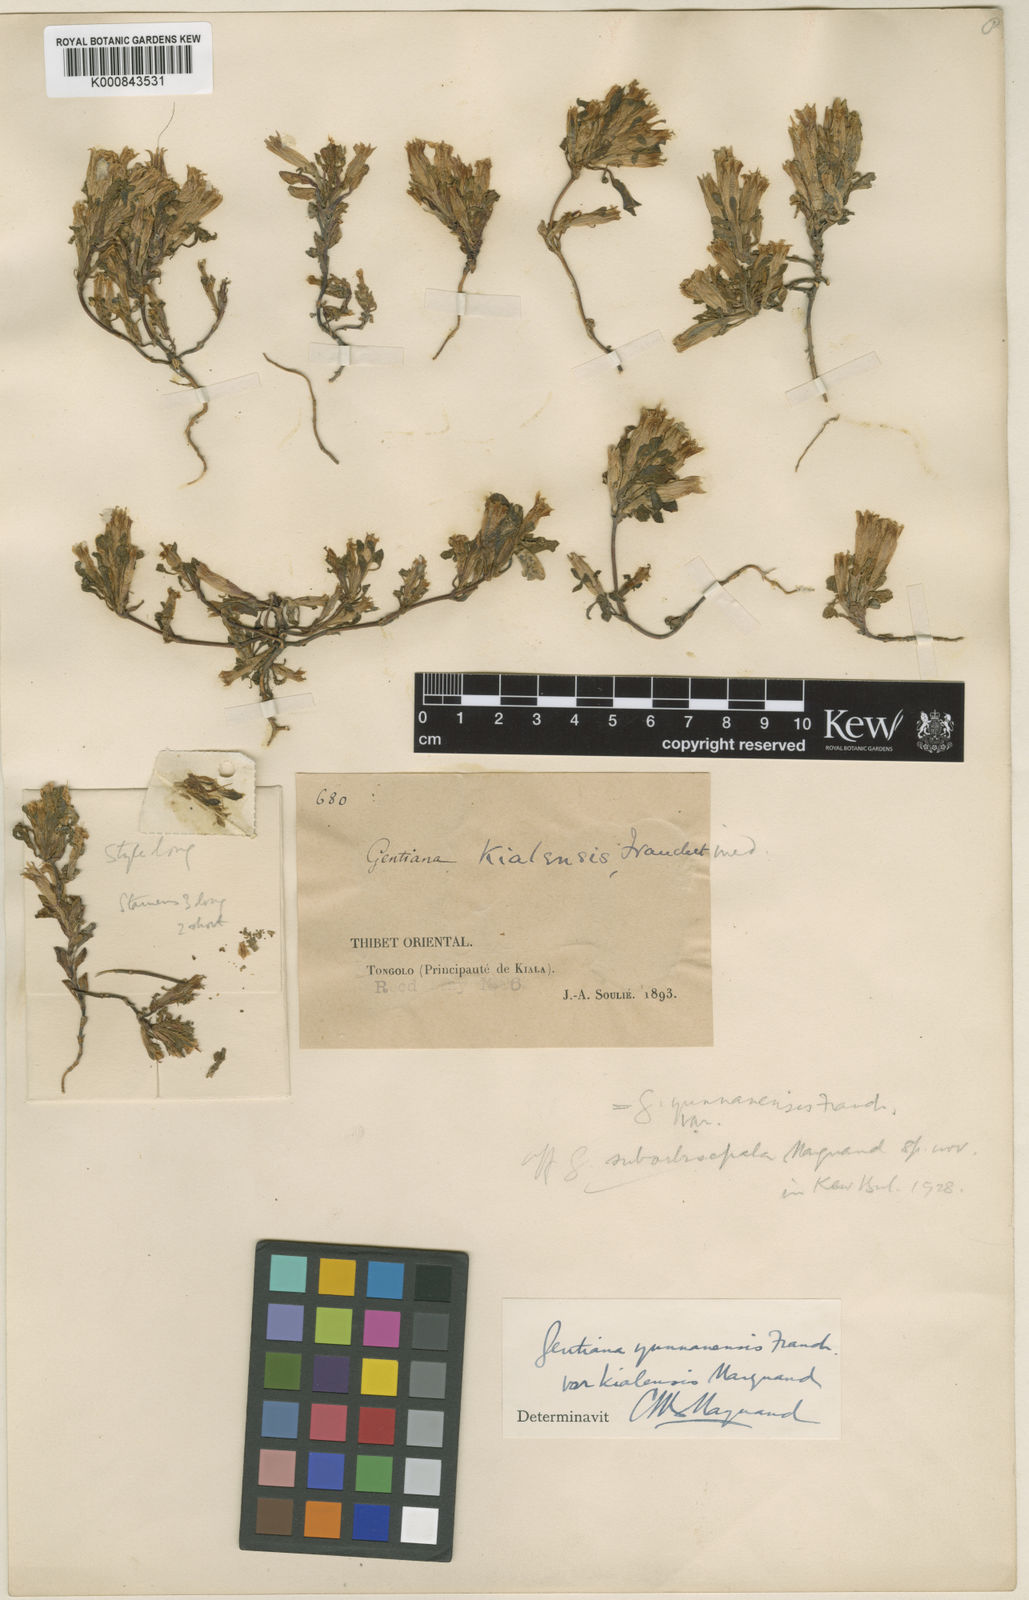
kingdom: Plantae
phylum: Tracheophyta
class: Magnoliopsida
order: Gentianales
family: Gentianaceae
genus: Gentiana
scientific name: Gentiana suborbisepala
